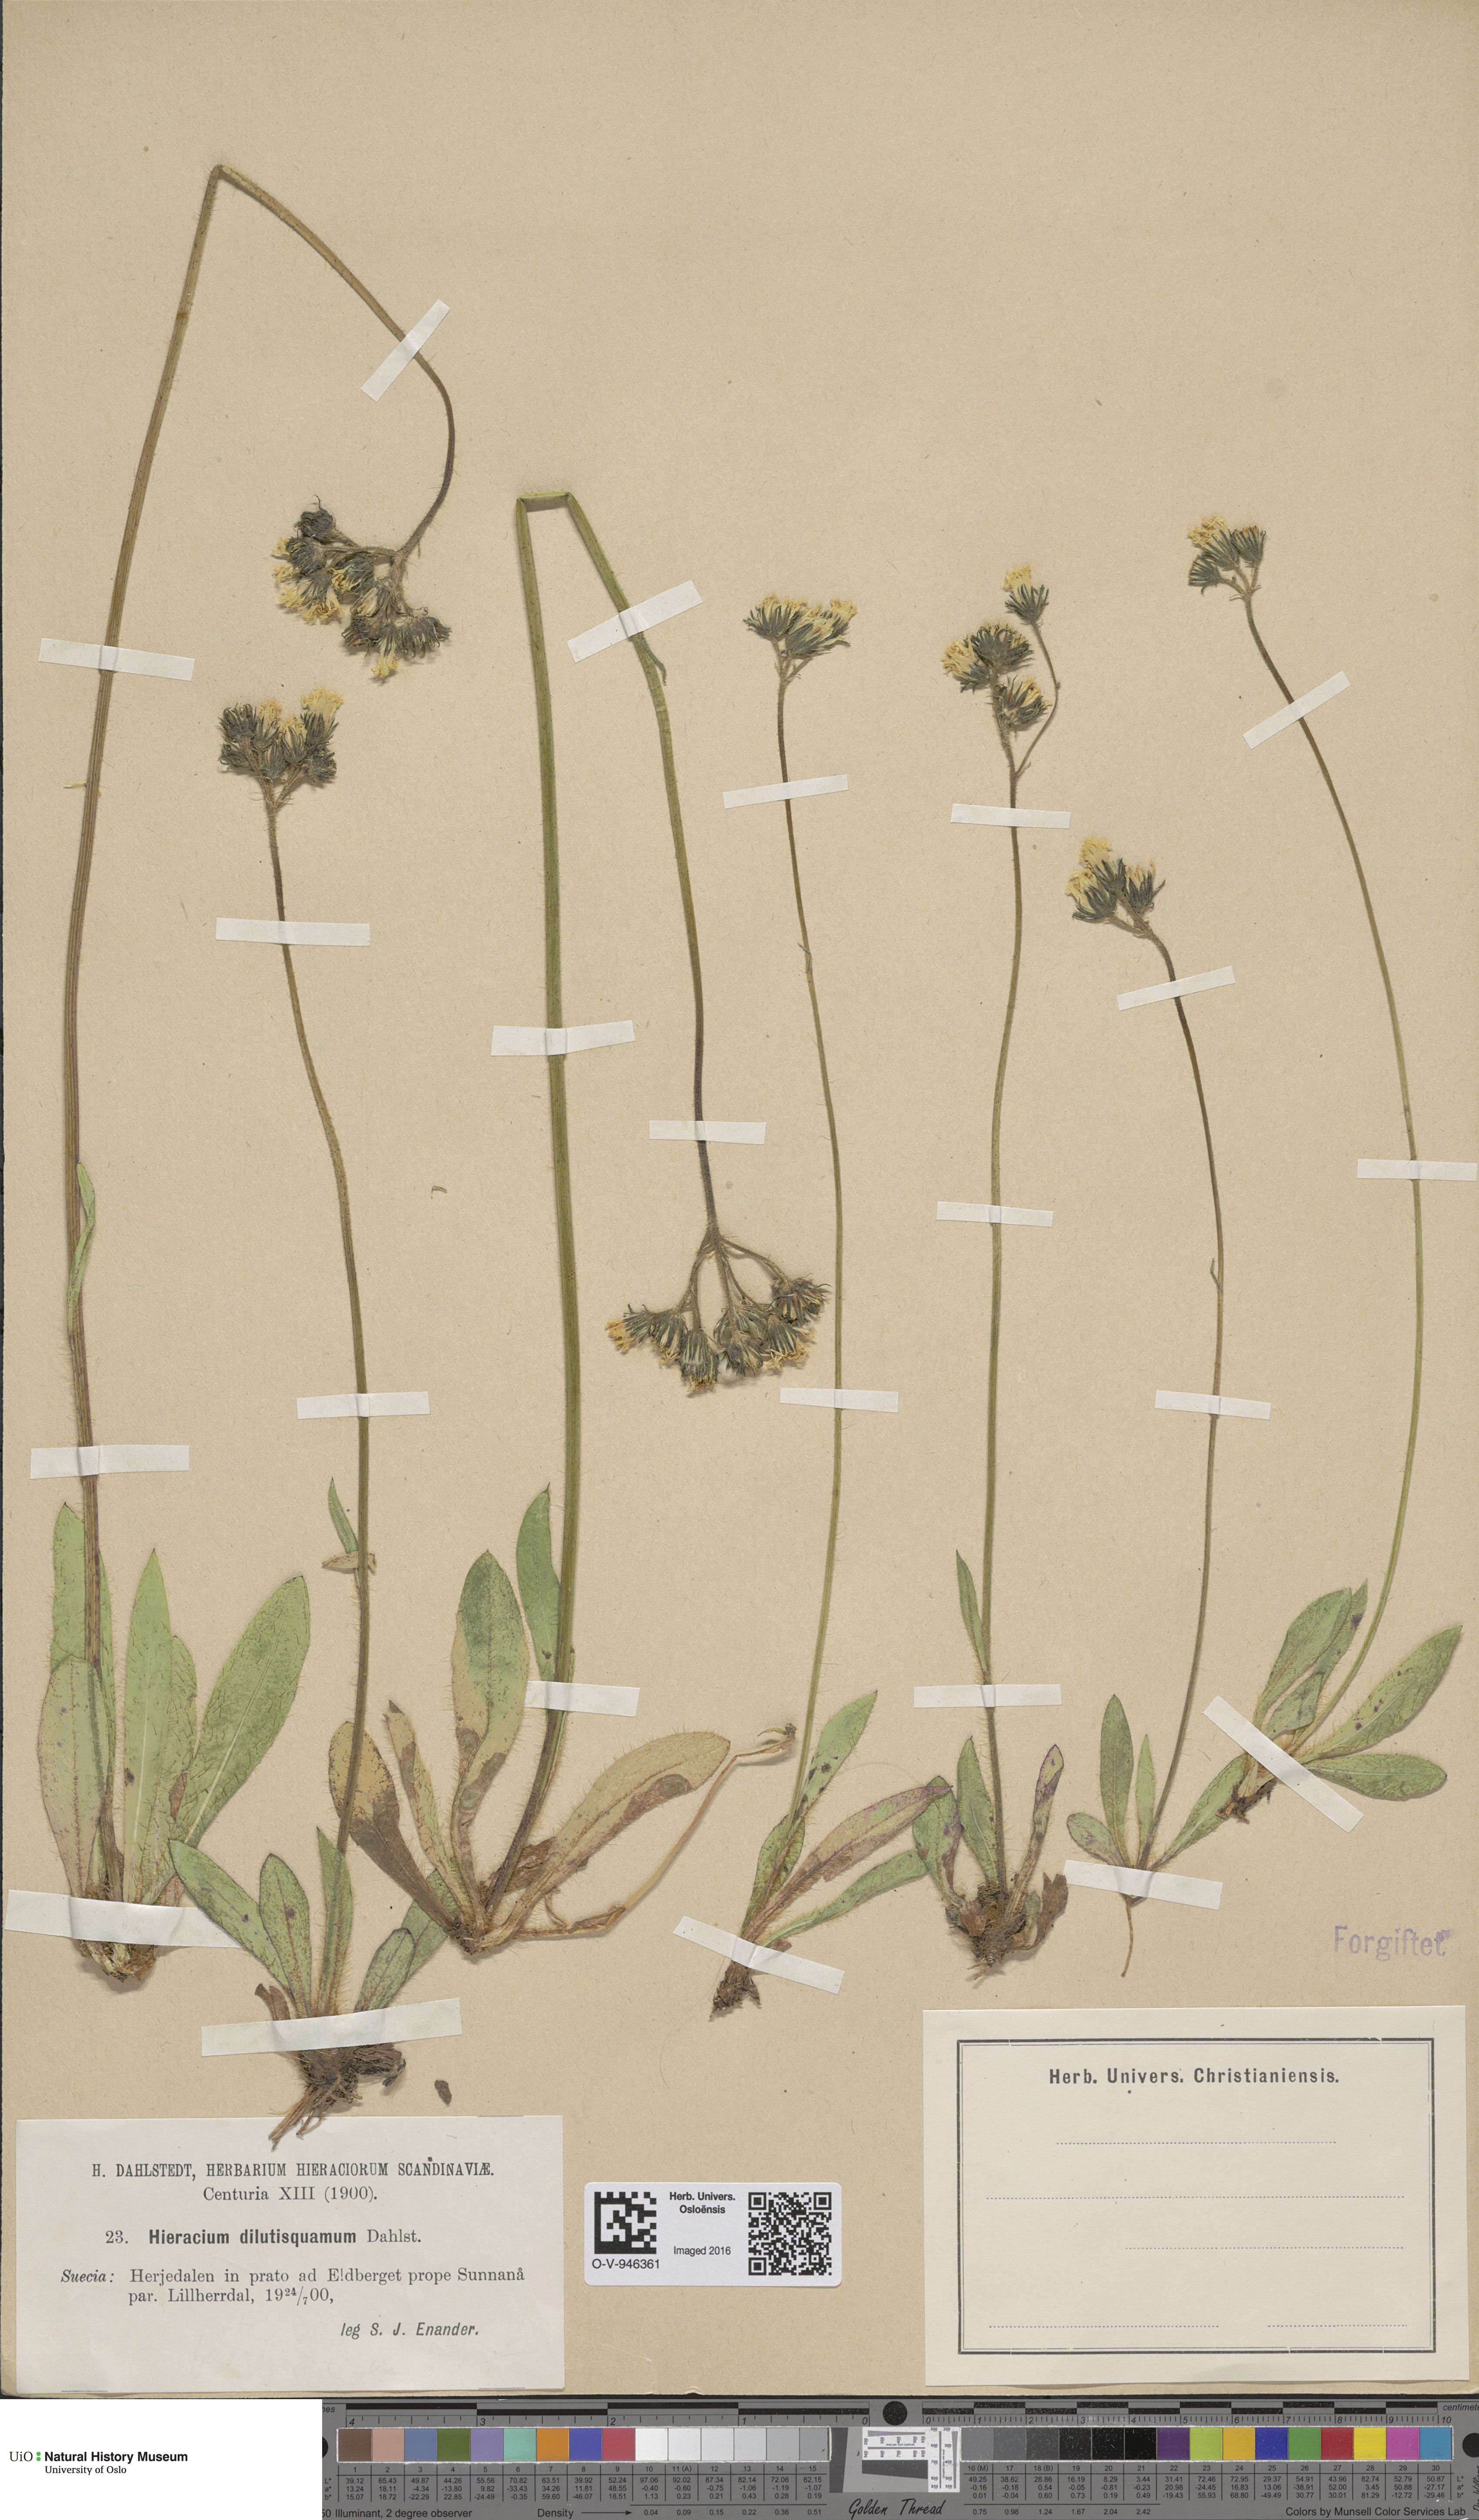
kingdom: Plantae
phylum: Tracheophyta
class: Magnoliopsida
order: Asterales
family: Asteraceae
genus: Hieracium
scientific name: Hieracium
